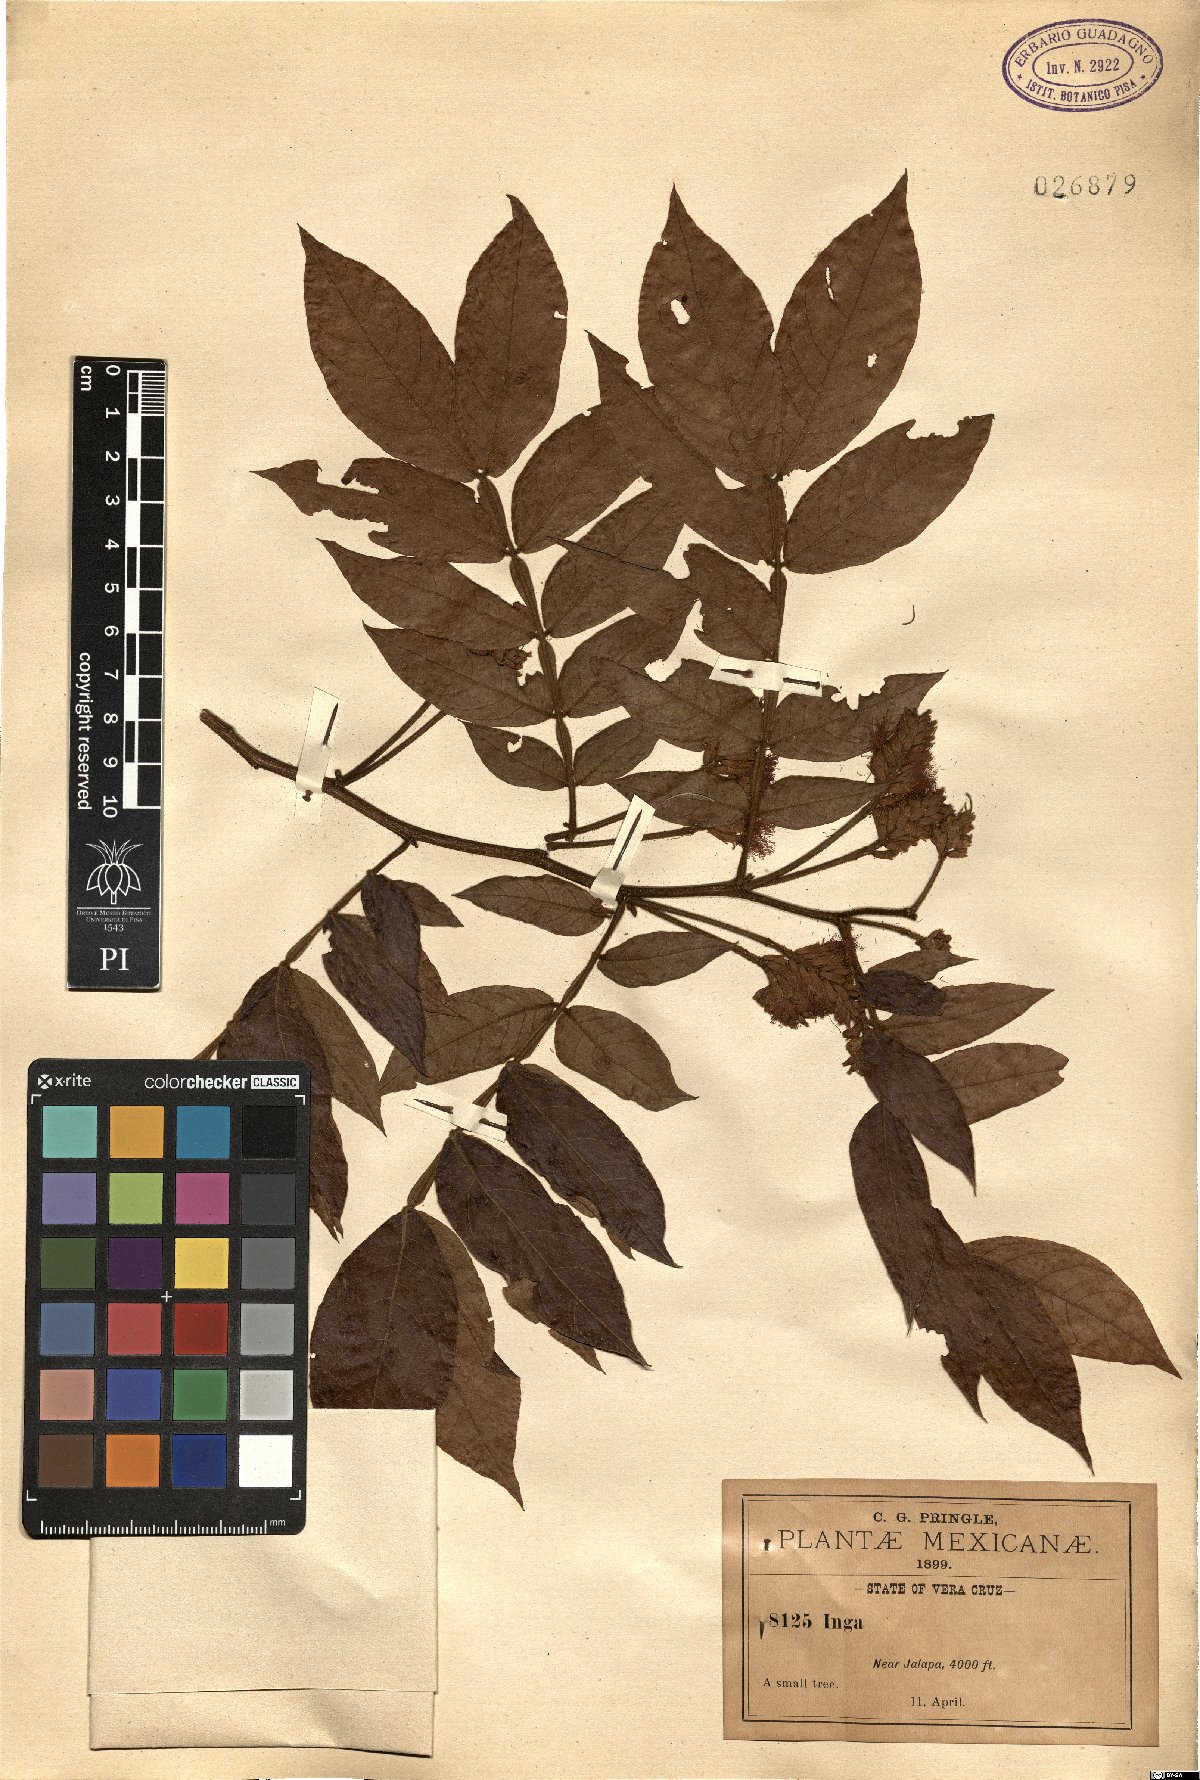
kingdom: Plantae
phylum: Tracheophyta
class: Magnoliopsida
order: Fabales
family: Fabaceae
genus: Inga
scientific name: Inga
